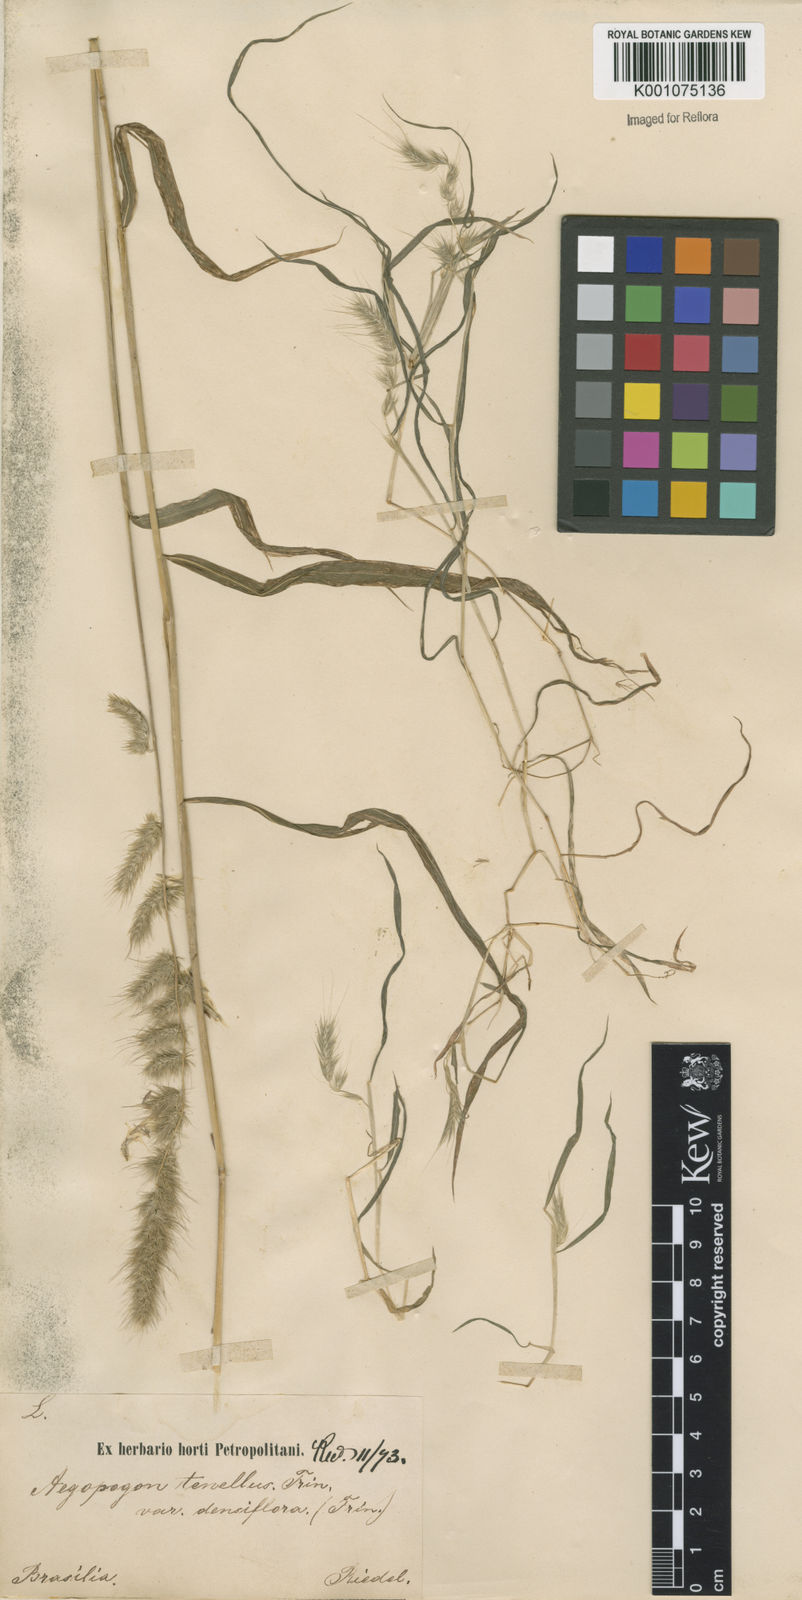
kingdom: Plantae
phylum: Tracheophyta
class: Liliopsida
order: Poales
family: Poaceae
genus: Muhlenbergia
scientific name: Muhlenbergia beyrichiana
